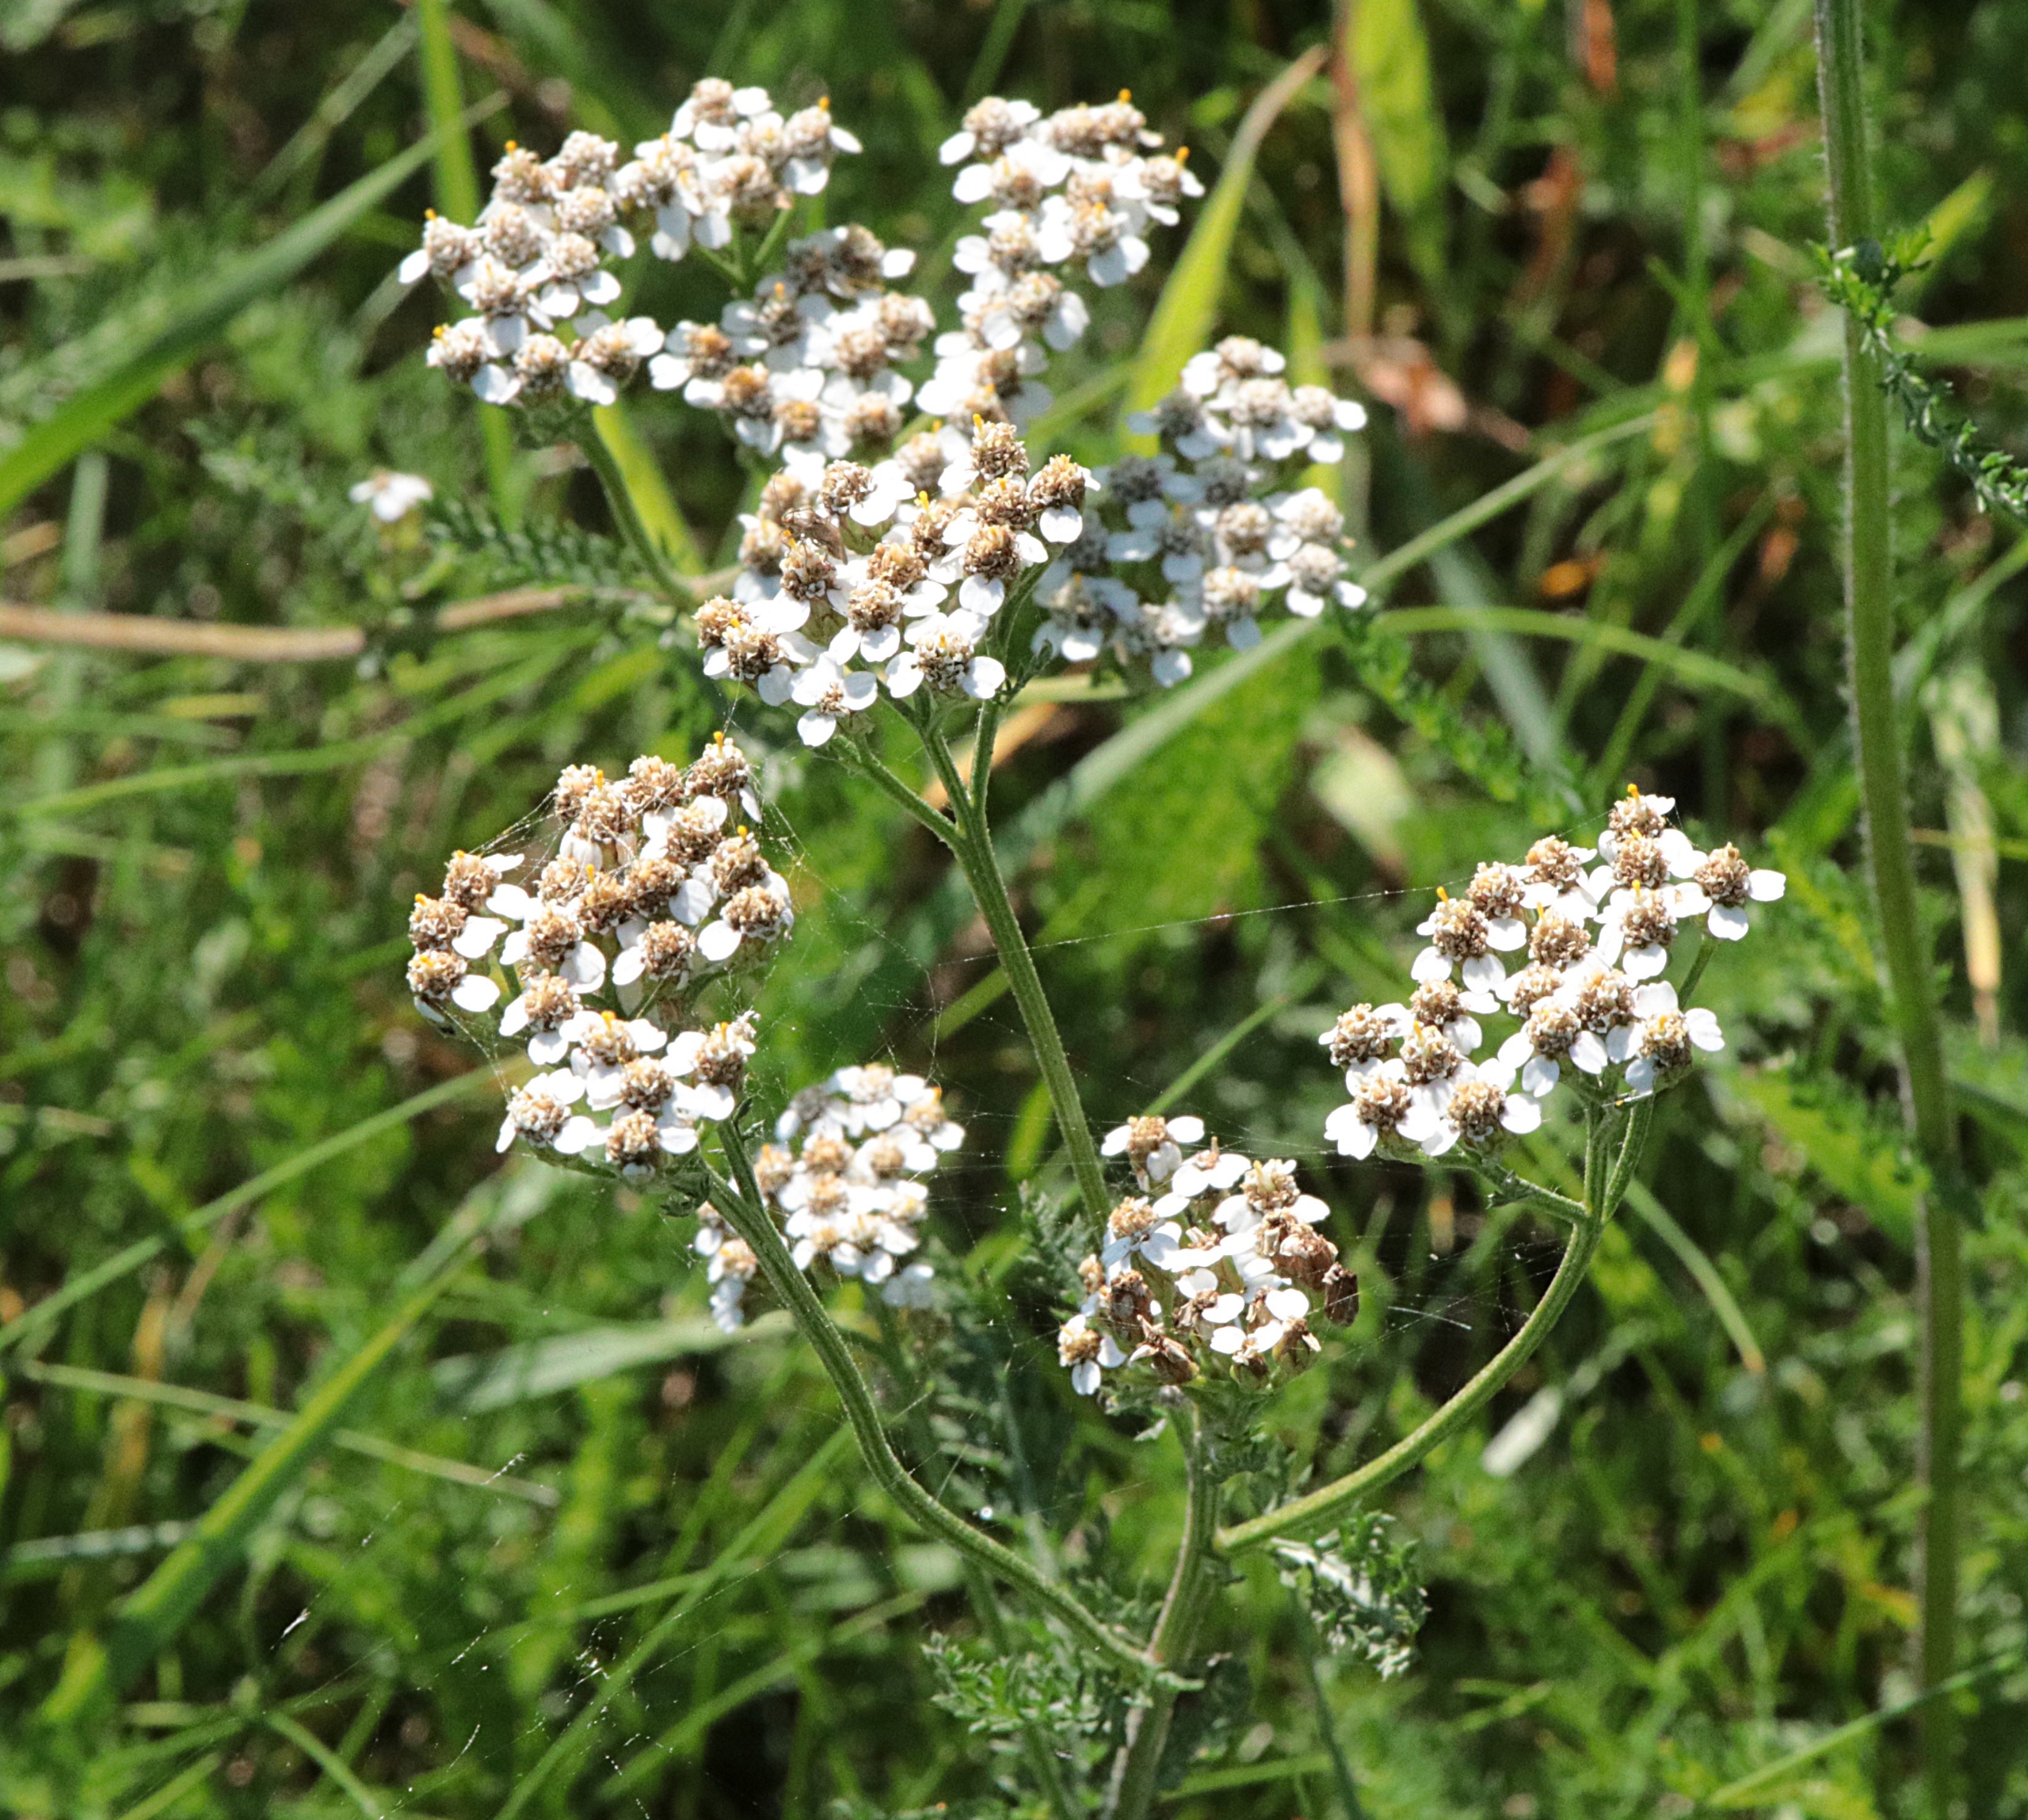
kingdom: Plantae
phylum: Tracheophyta
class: Magnoliopsida
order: Asterales
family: Asteraceae
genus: Achillea
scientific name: Achillea millefolium
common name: Almindelig røllike
